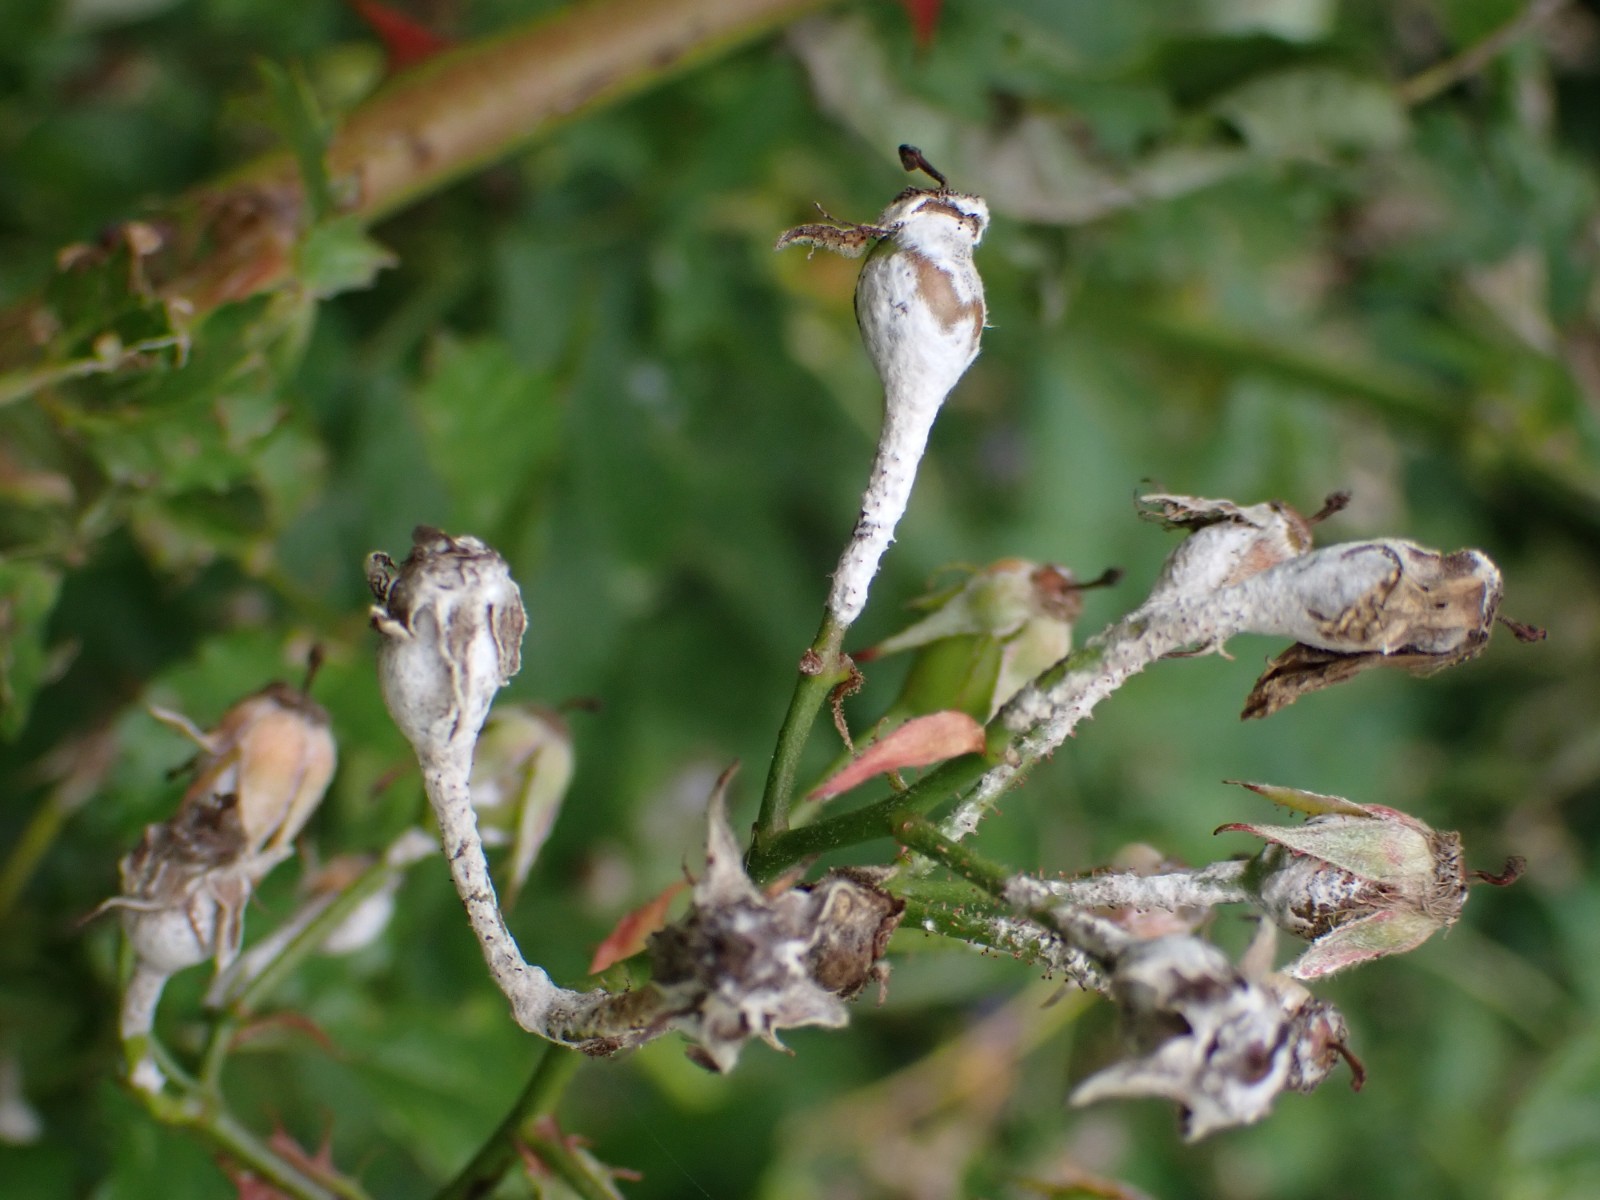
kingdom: Fungi
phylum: Ascomycota
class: Leotiomycetes
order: Helotiales
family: Erysiphaceae
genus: Podosphaera
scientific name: Podosphaera pannosa
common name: Rose mildew
